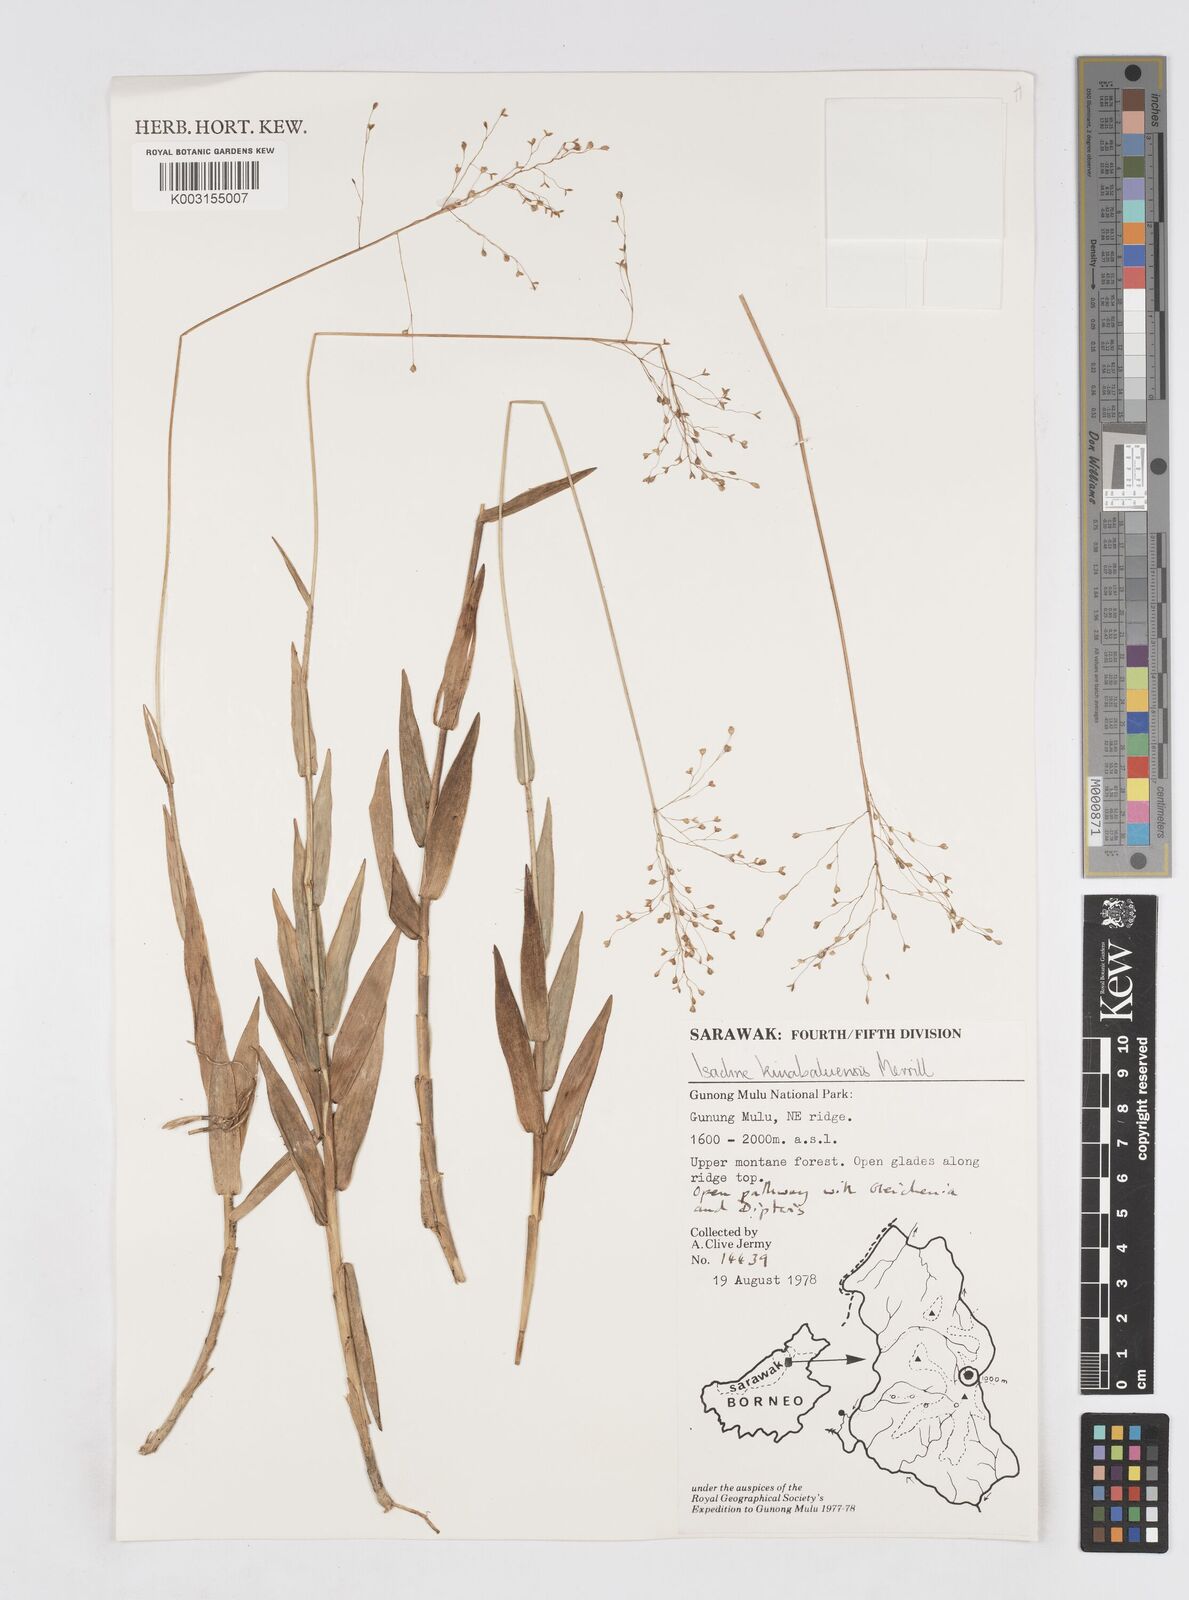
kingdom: Plantae
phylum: Tracheophyta
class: Liliopsida
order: Poales
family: Poaceae
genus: Isachne
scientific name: Isachne kinabaluensis
